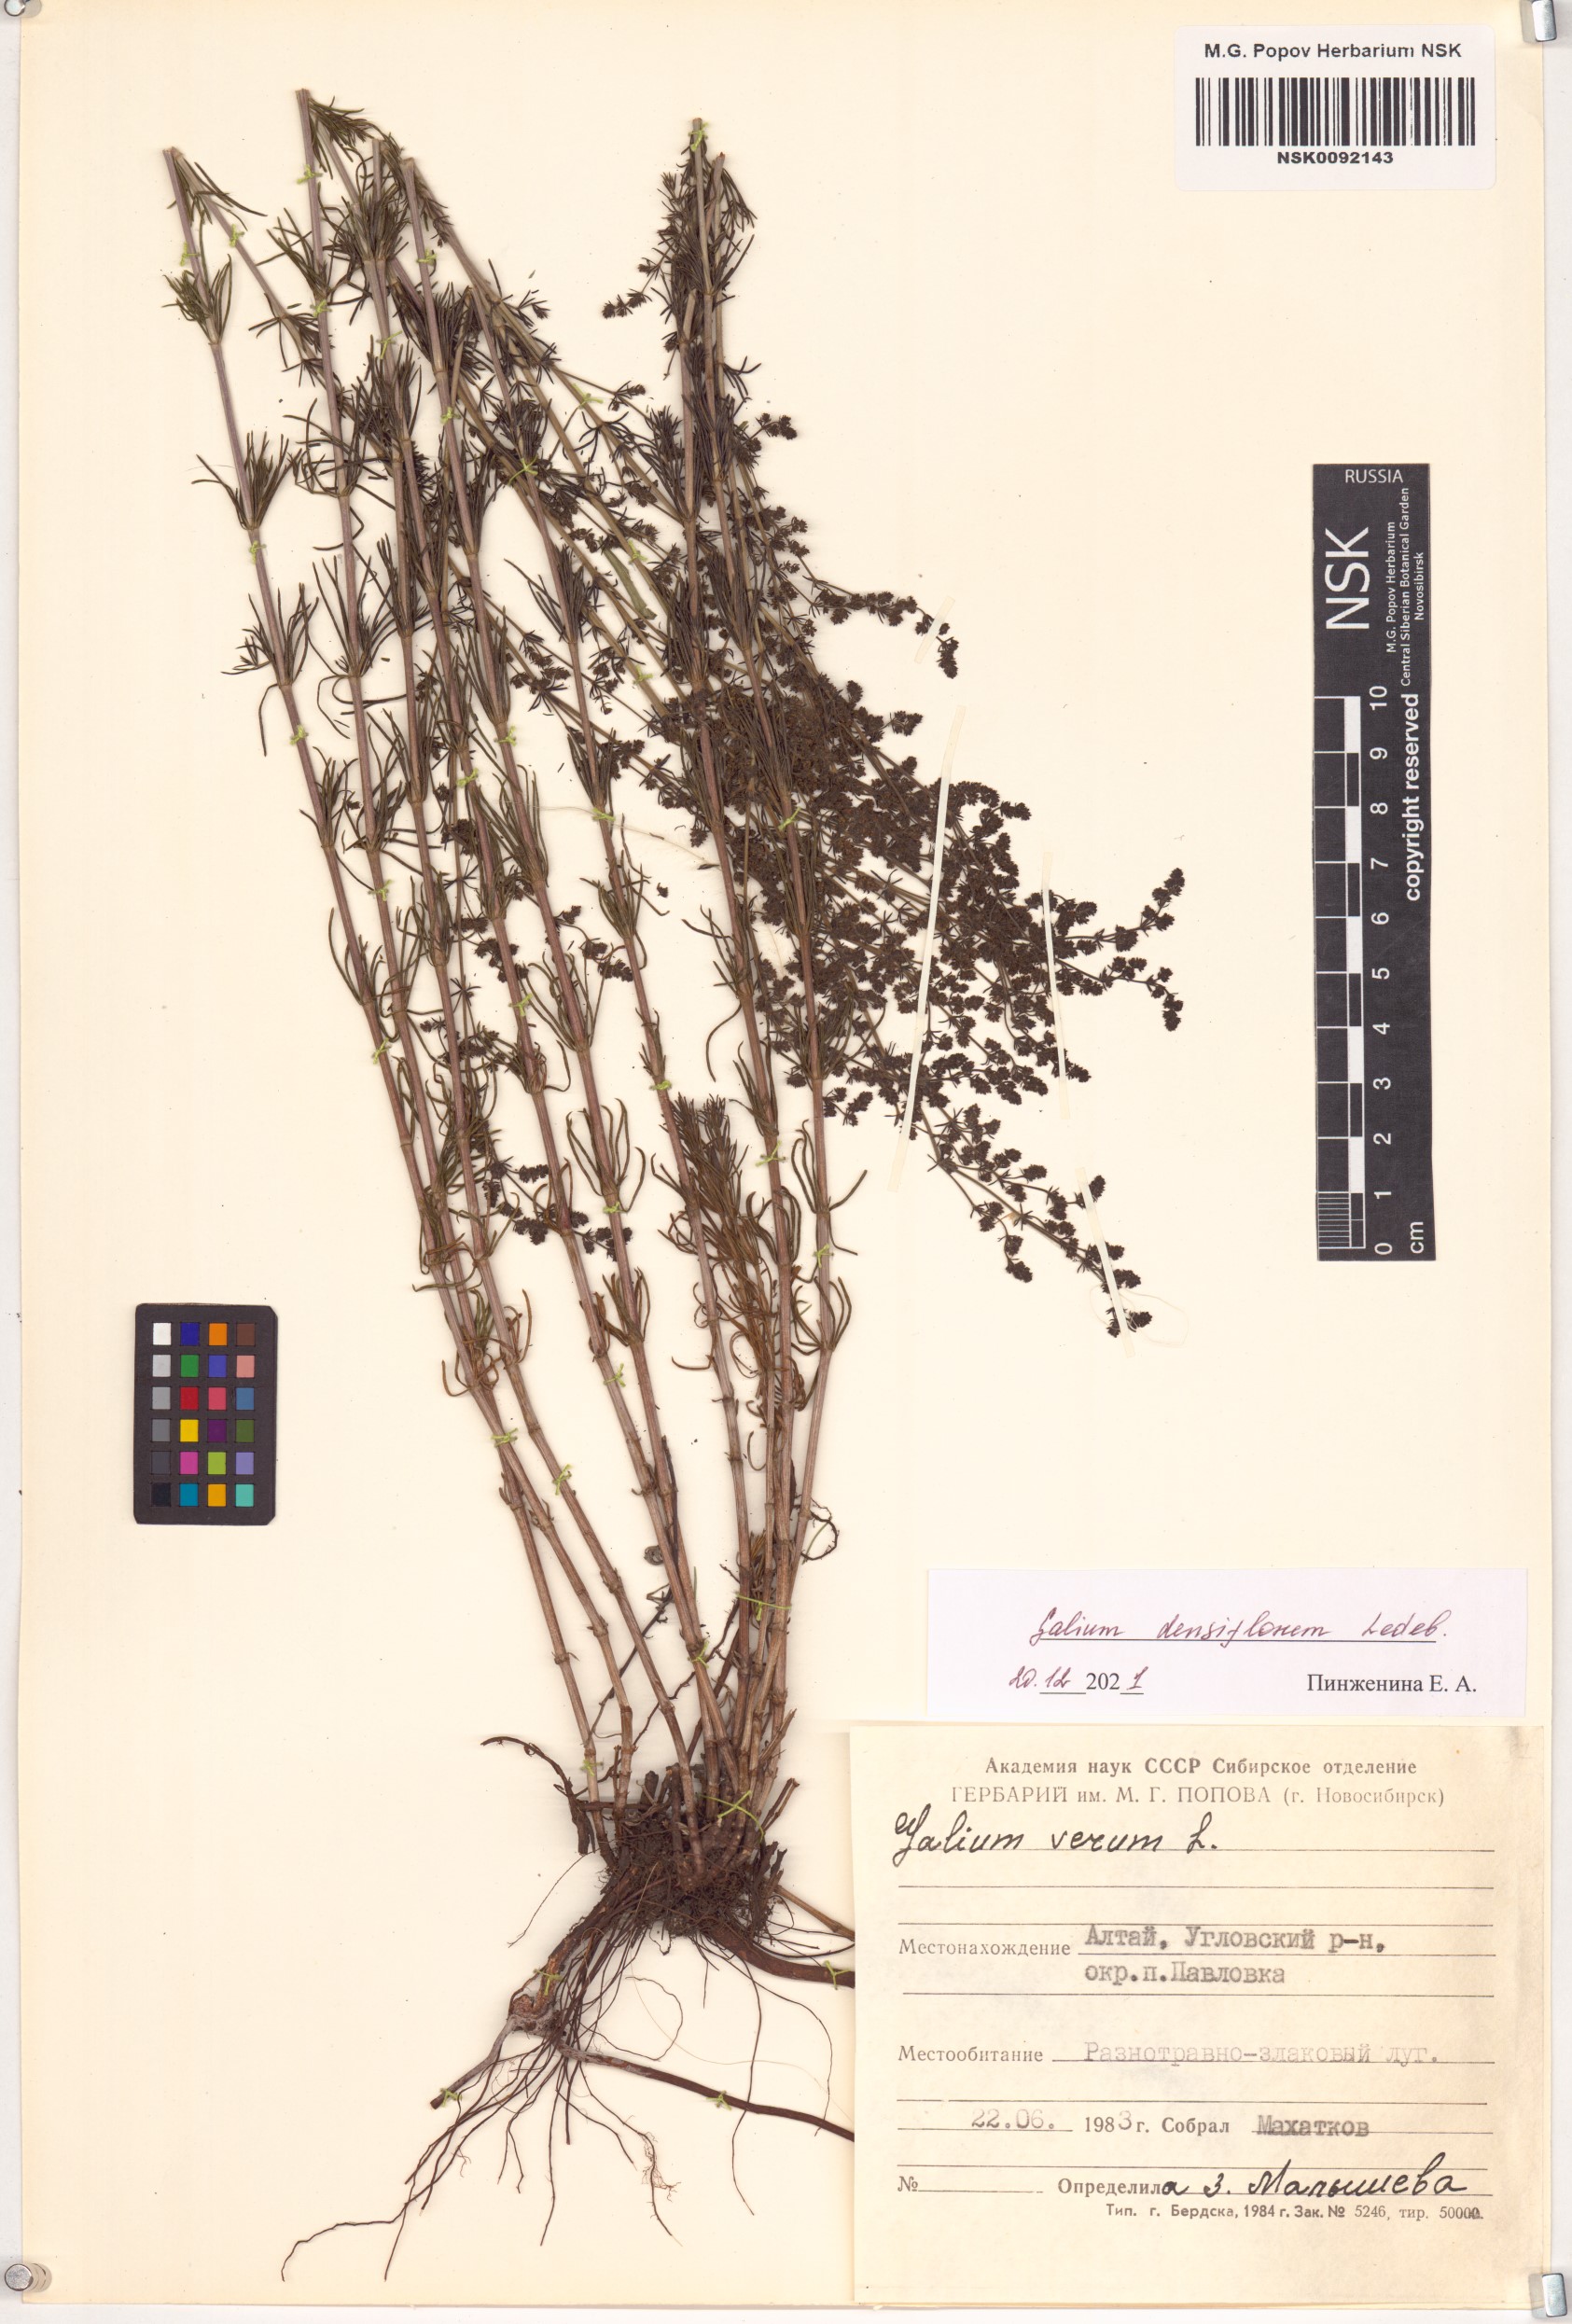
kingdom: Plantae
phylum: Tracheophyta
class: Magnoliopsida
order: Gentianales
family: Rubiaceae
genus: Galium
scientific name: Galium densiflorum
